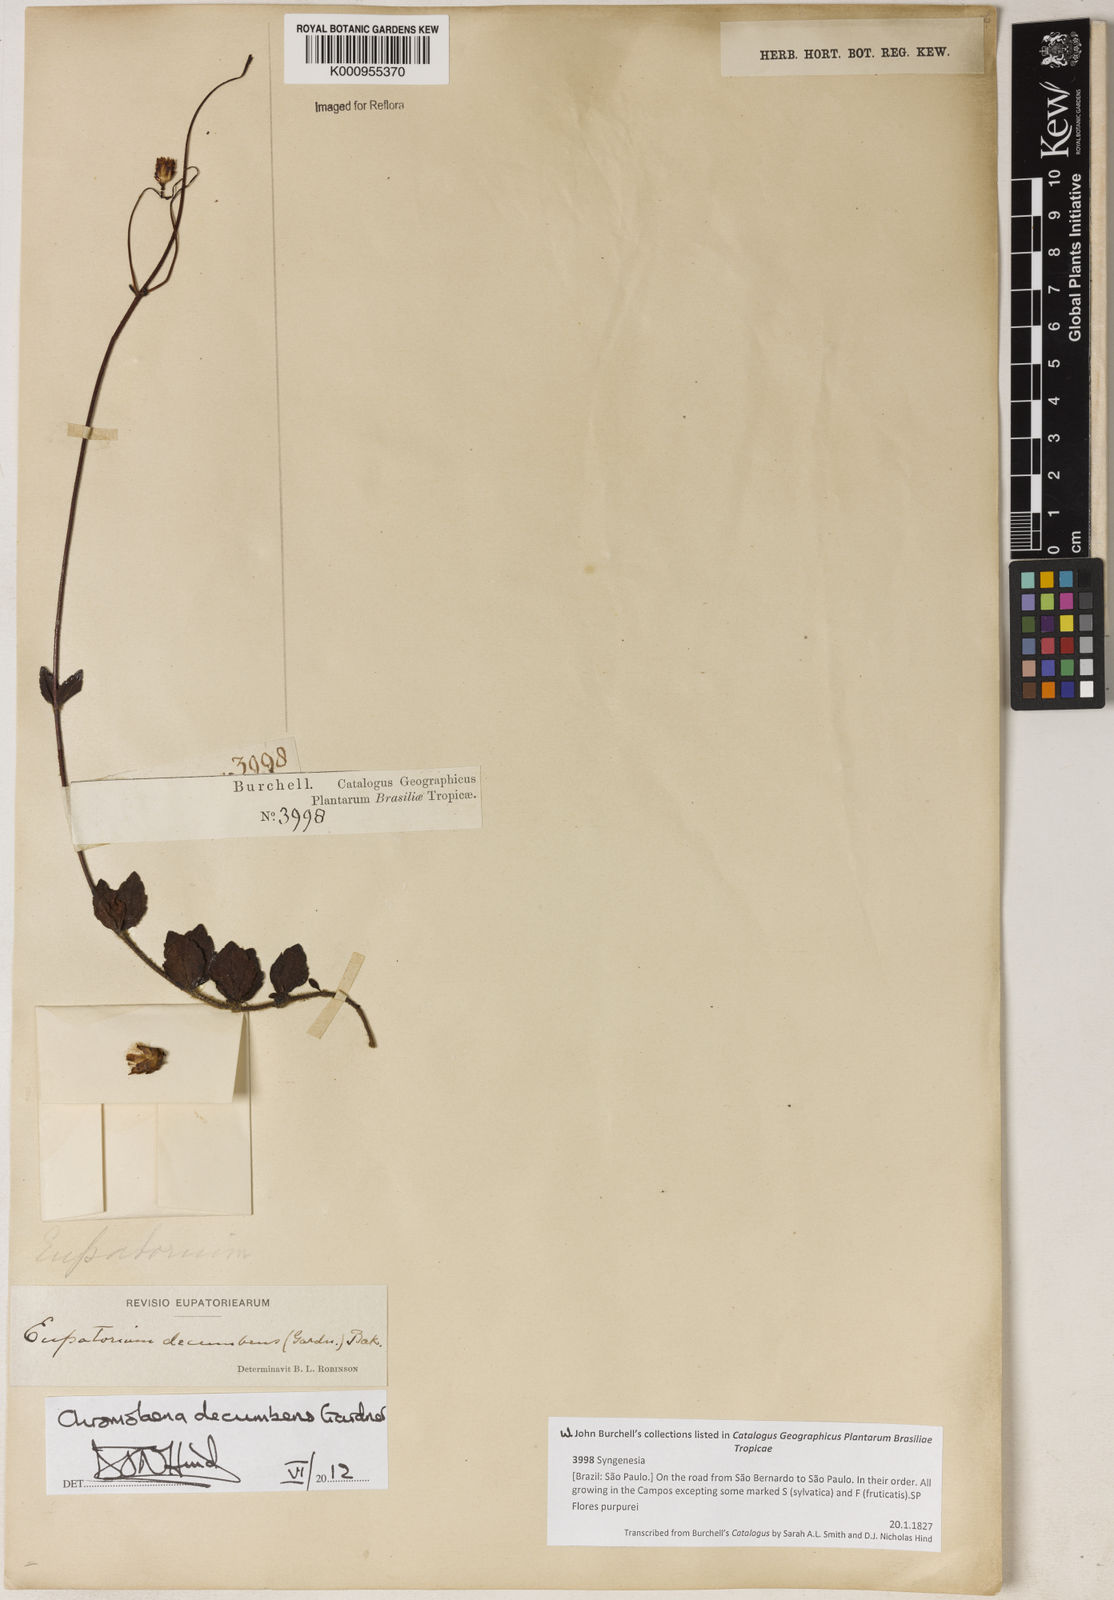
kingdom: Plantae
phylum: Tracheophyta
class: Magnoliopsida
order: Asterales
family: Asteraceae
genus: Praxelis
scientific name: Praxelis decumbens
